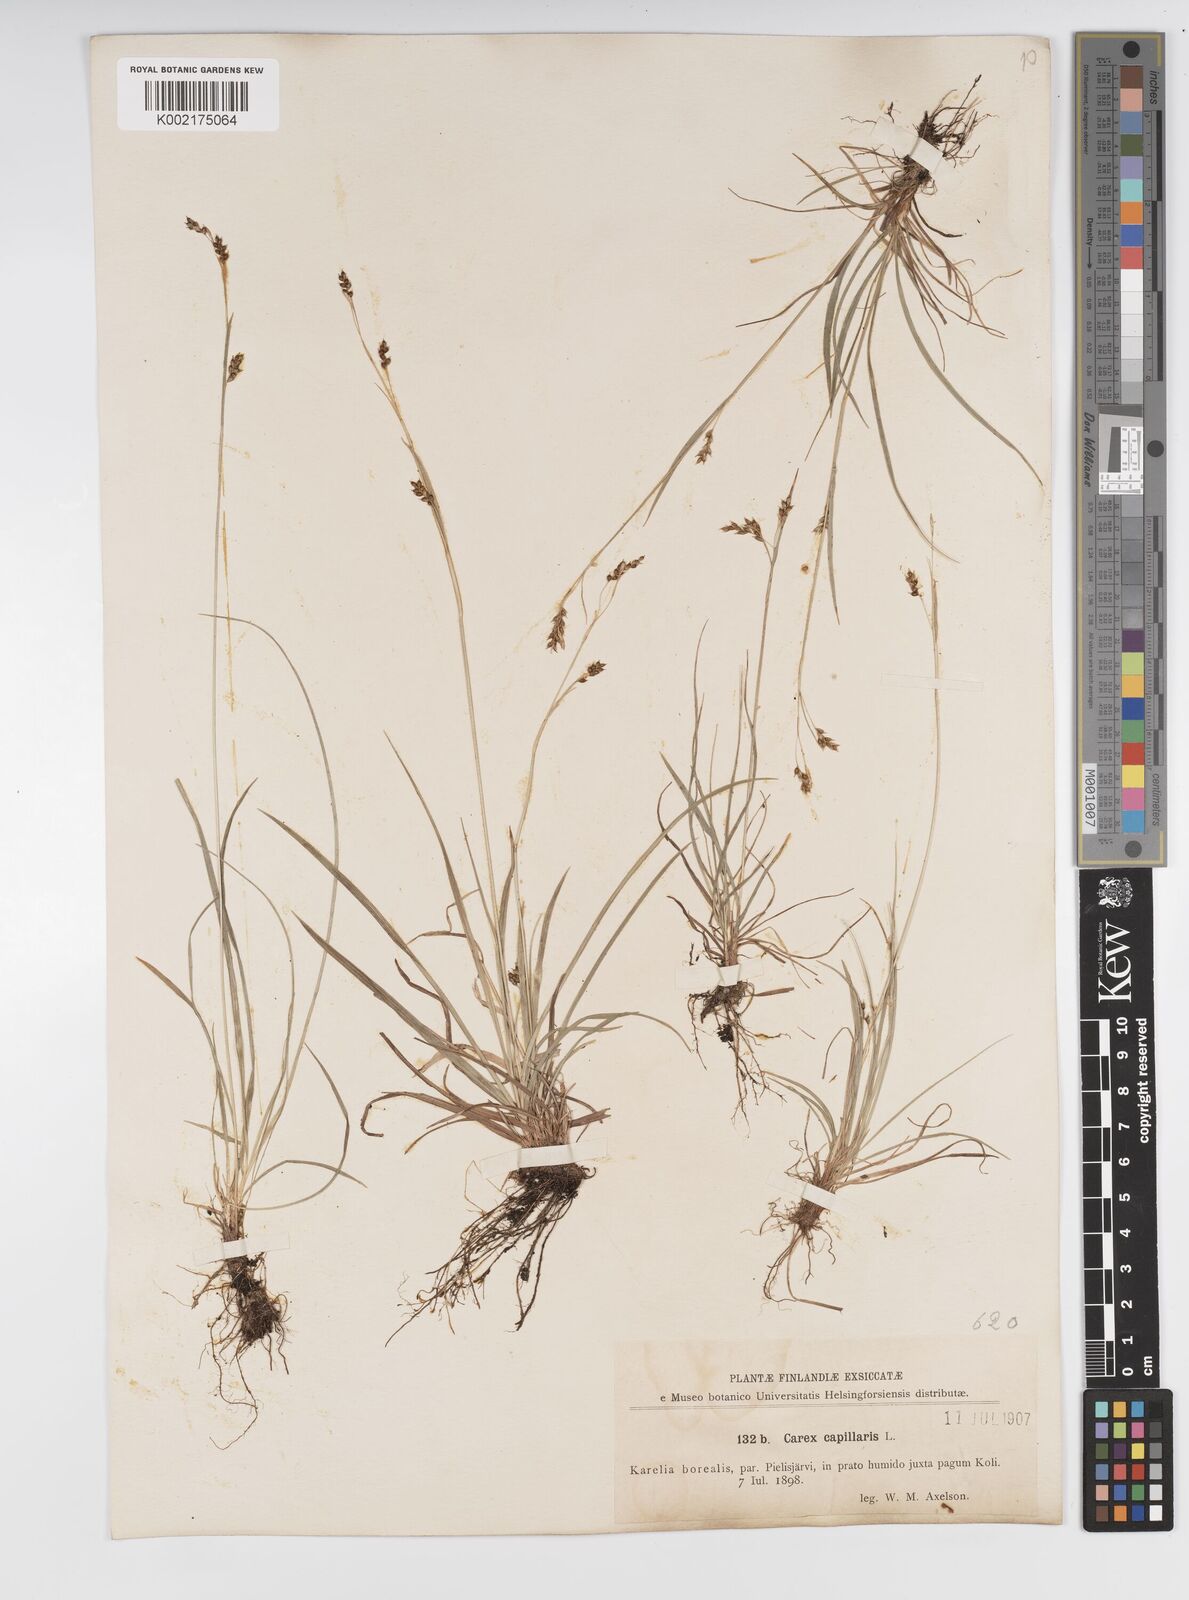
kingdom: Plantae
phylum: Tracheophyta
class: Liliopsida
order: Poales
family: Cyperaceae
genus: Carex
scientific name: Carex capillaris
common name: Hair sedge
